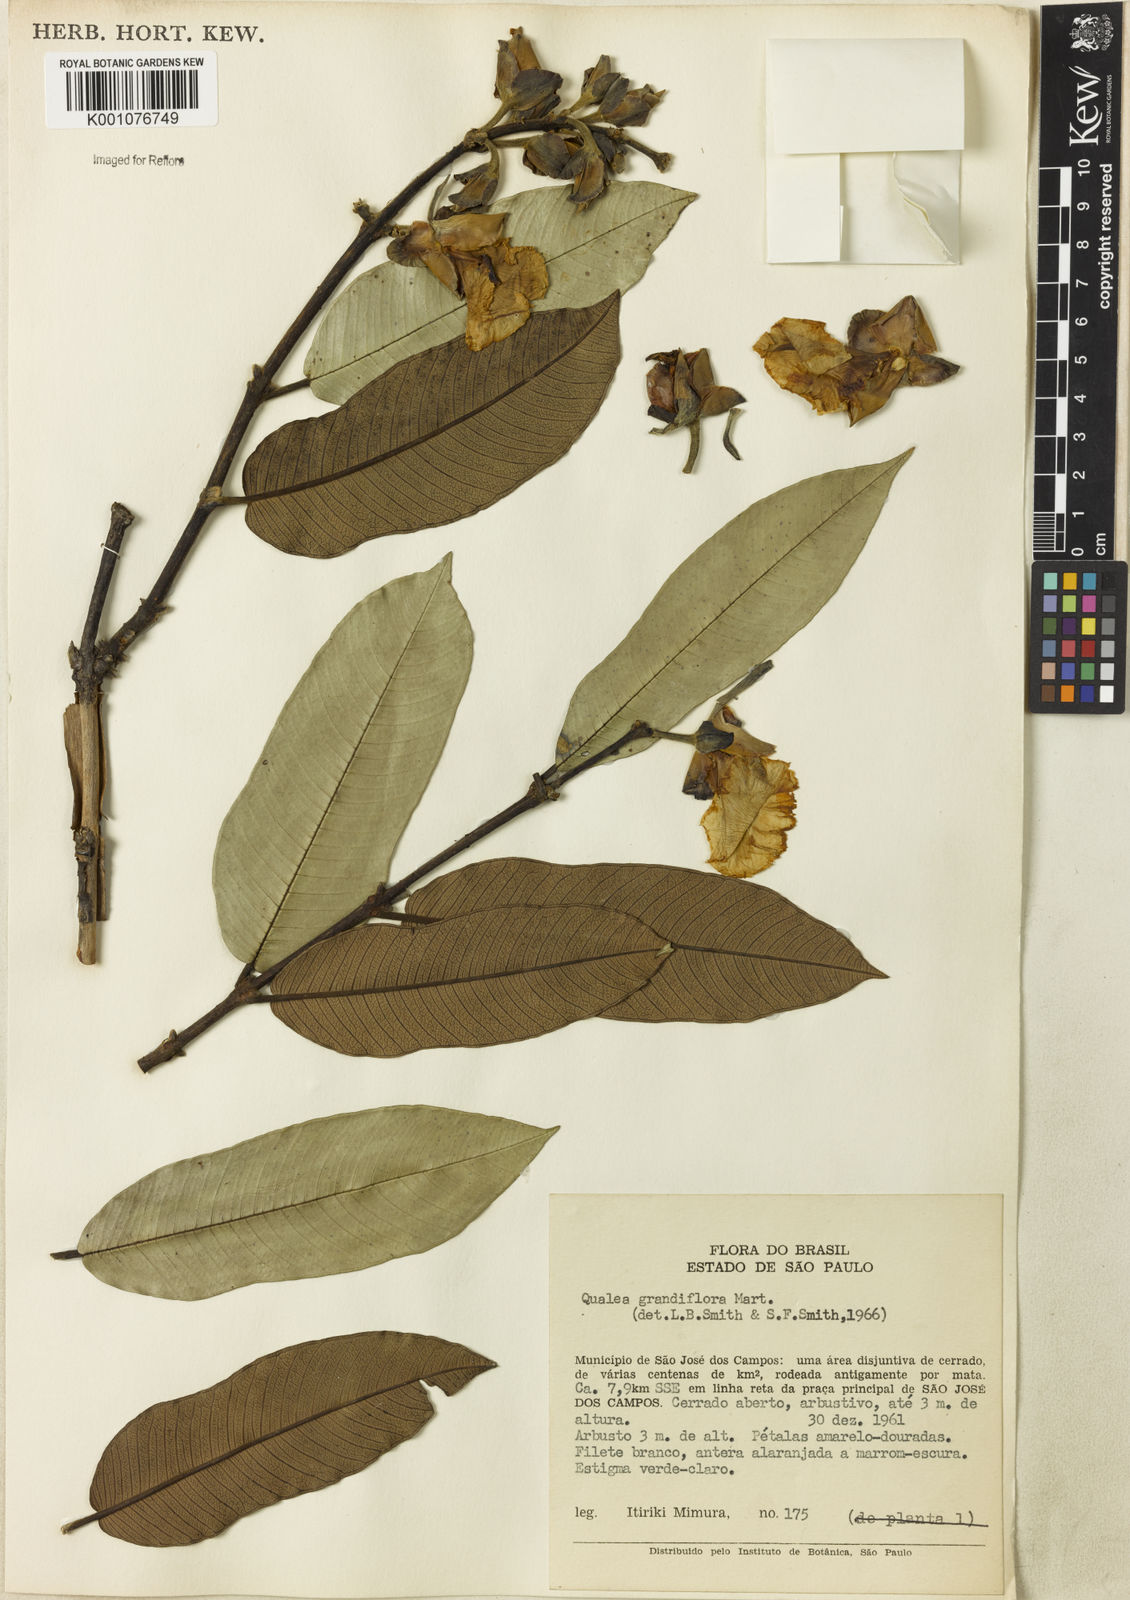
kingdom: Plantae
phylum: Tracheophyta
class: Magnoliopsida
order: Myrtales
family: Vochysiaceae
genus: Qualea
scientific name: Qualea grandiflora
